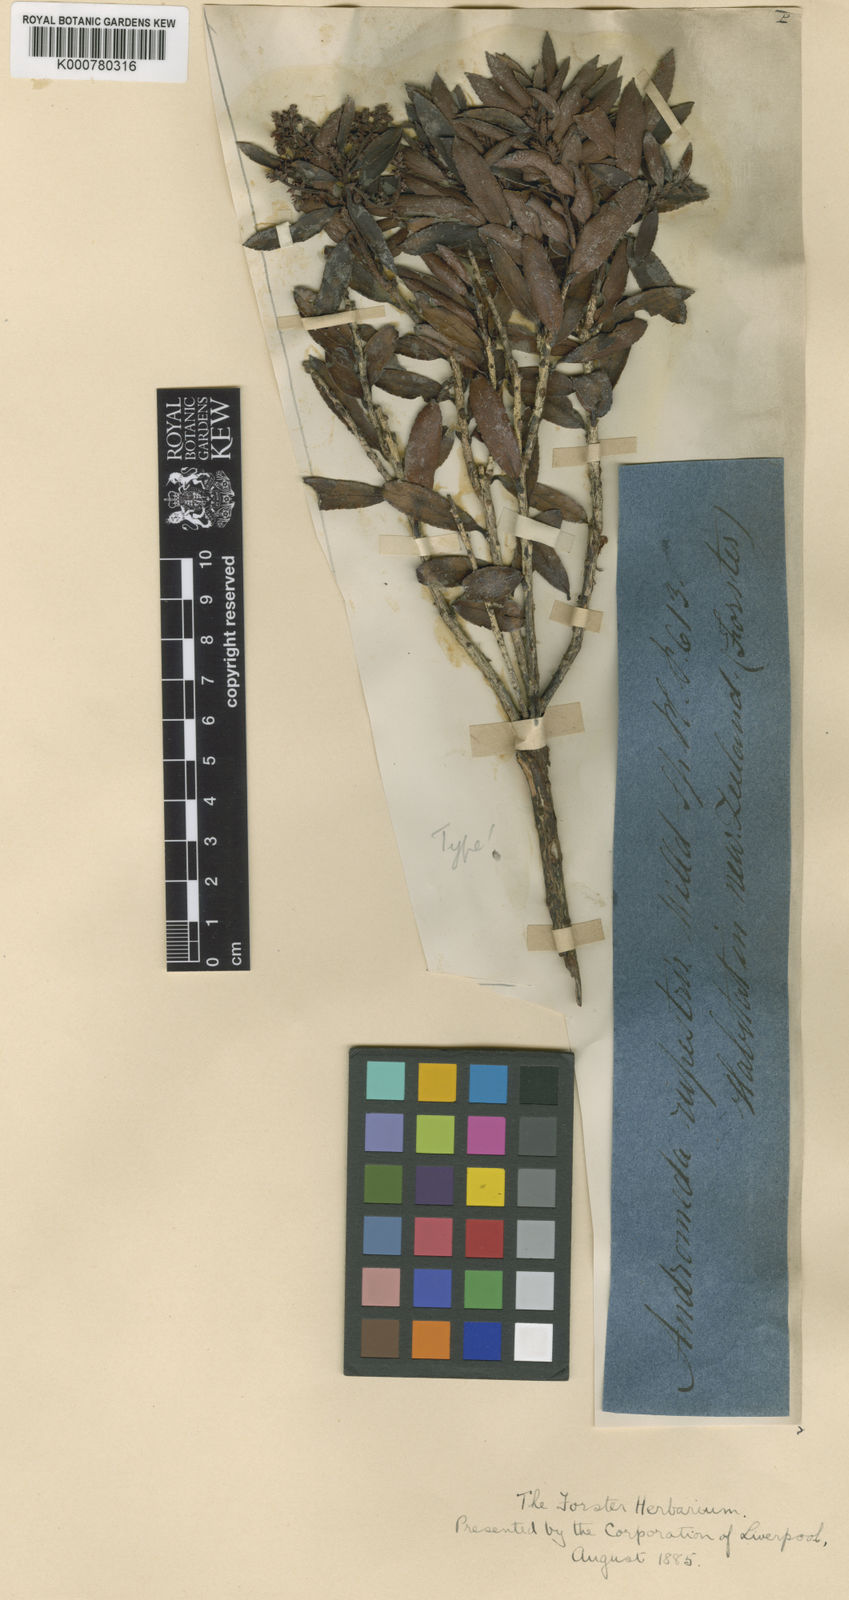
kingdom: Plantae
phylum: Tracheophyta
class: Magnoliopsida
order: Ericales
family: Ericaceae
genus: Gaultheria
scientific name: Gaultheria
